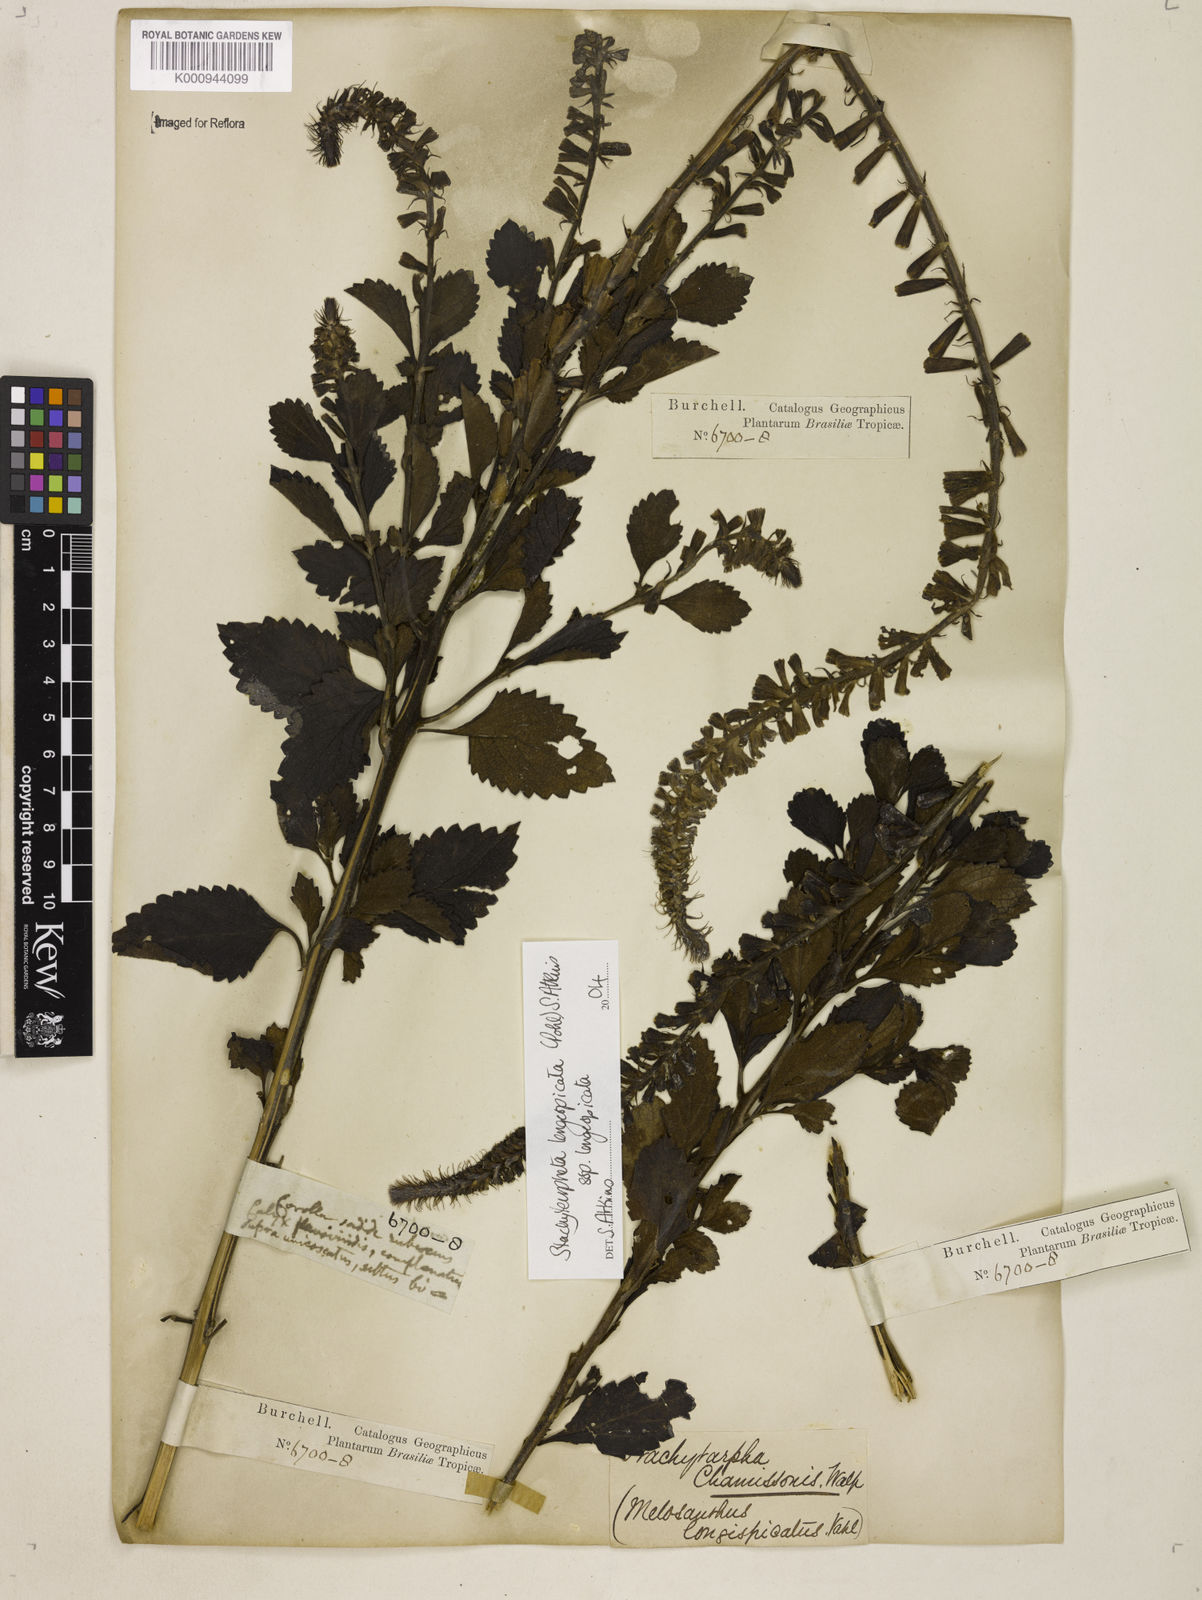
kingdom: Plantae
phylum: Tracheophyta
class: Magnoliopsida
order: Lamiales
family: Verbenaceae
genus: Stachytarpheta
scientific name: Stachytarpheta longispicata
